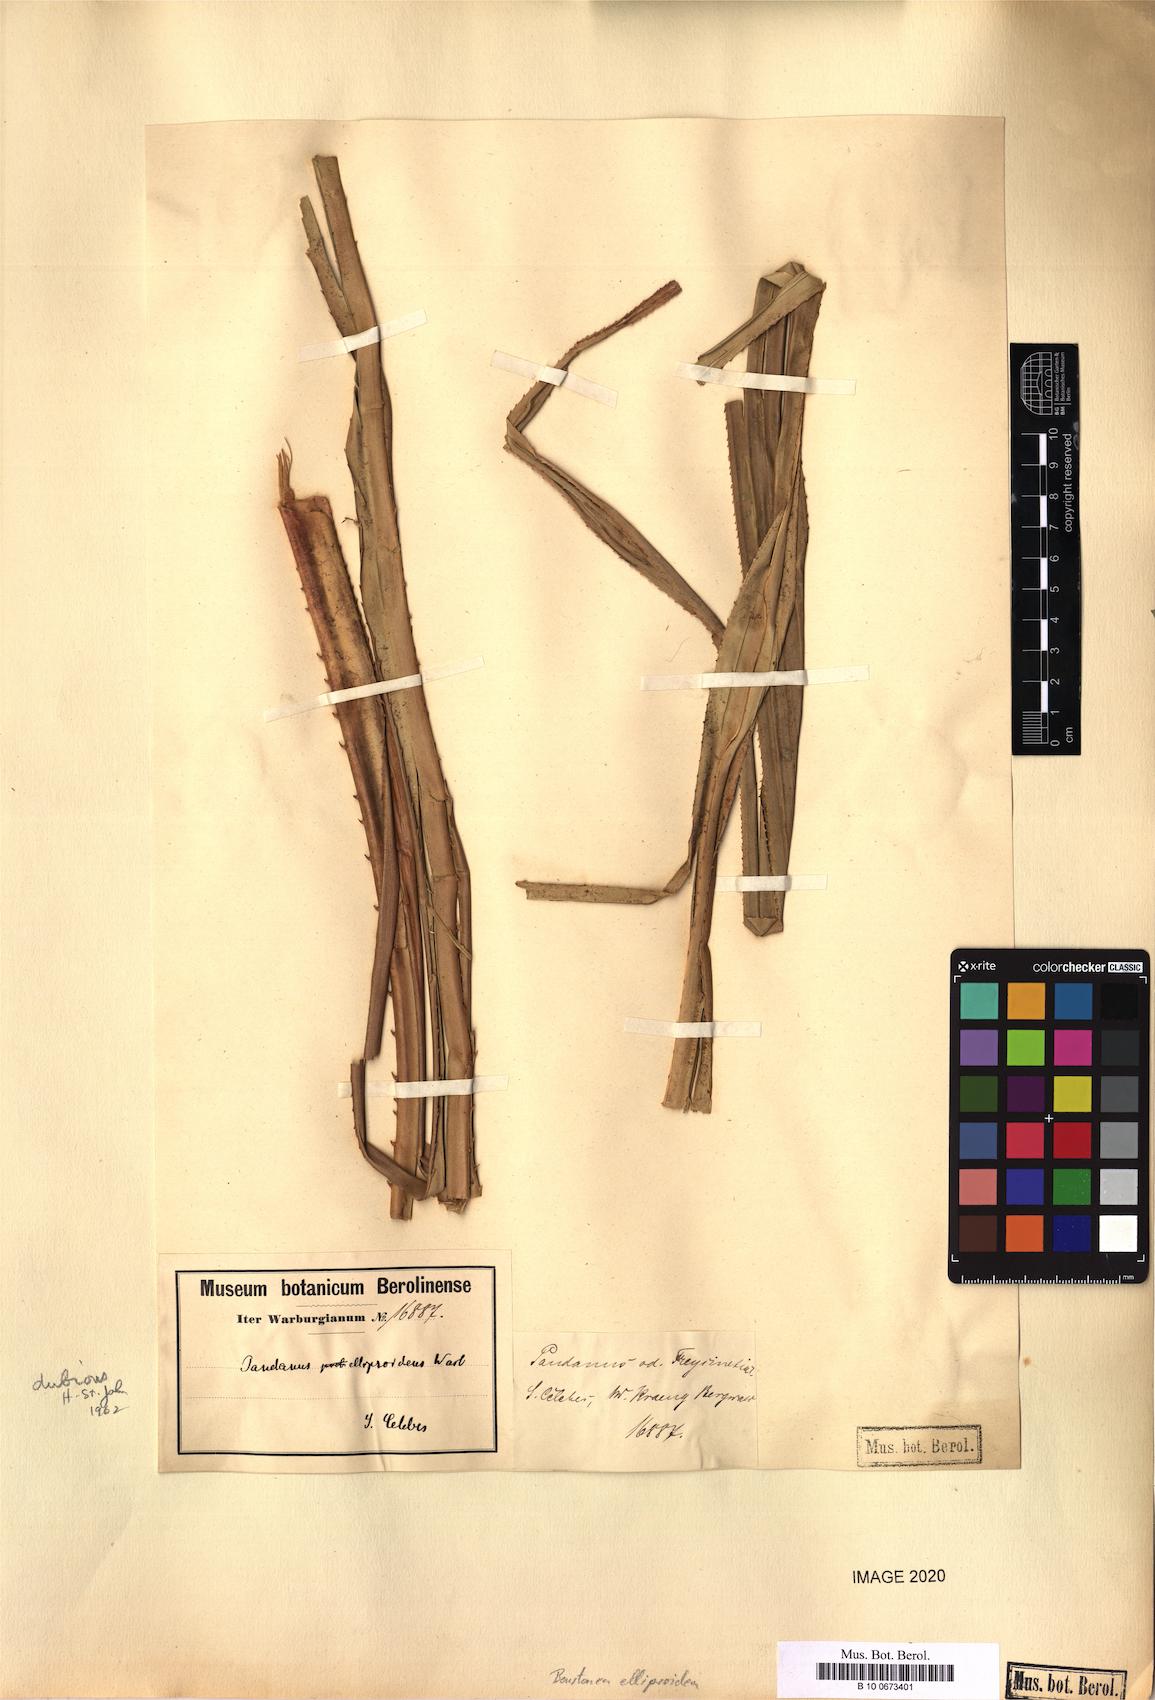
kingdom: Plantae
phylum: Tracheophyta
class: Liliopsida
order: Pandanales
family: Pandanaceae
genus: Benstonea
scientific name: Benstonea ellipsoidea
